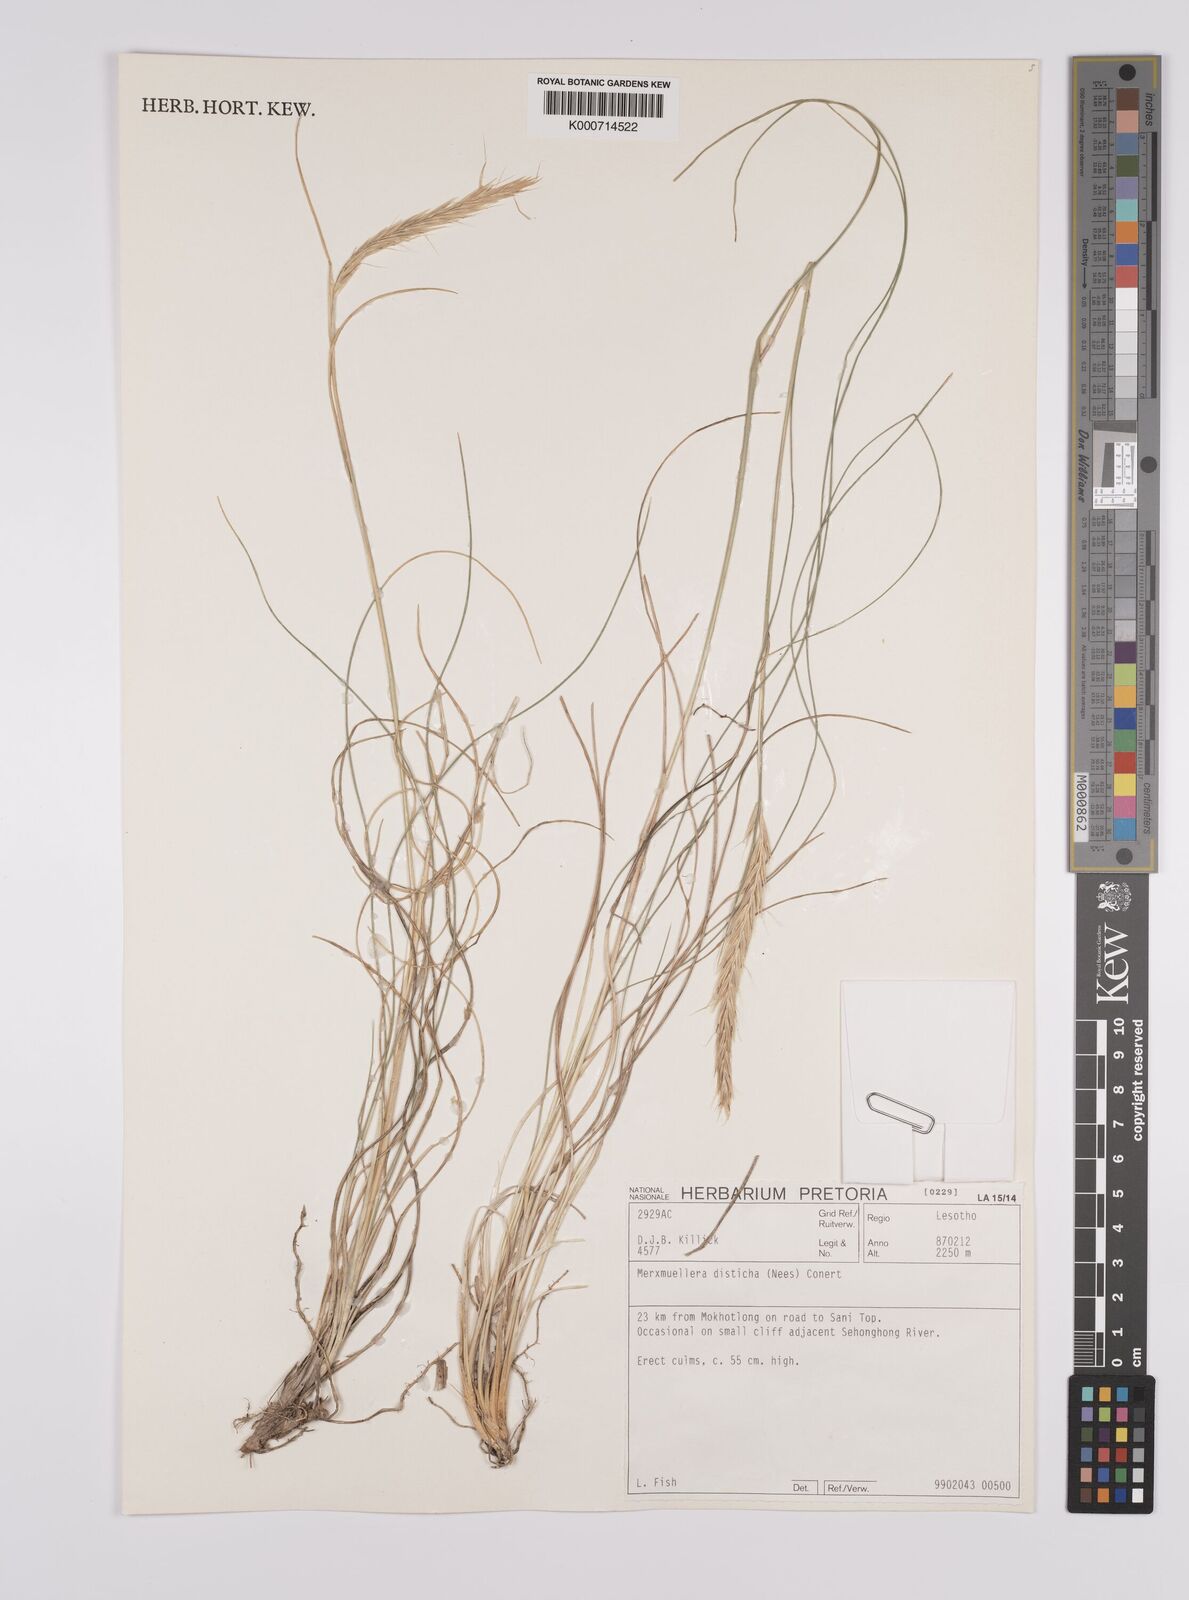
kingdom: Plantae
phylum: Tracheophyta
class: Liliopsida
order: Poales
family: Poaceae
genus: Tenaxia
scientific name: Tenaxia disticha
